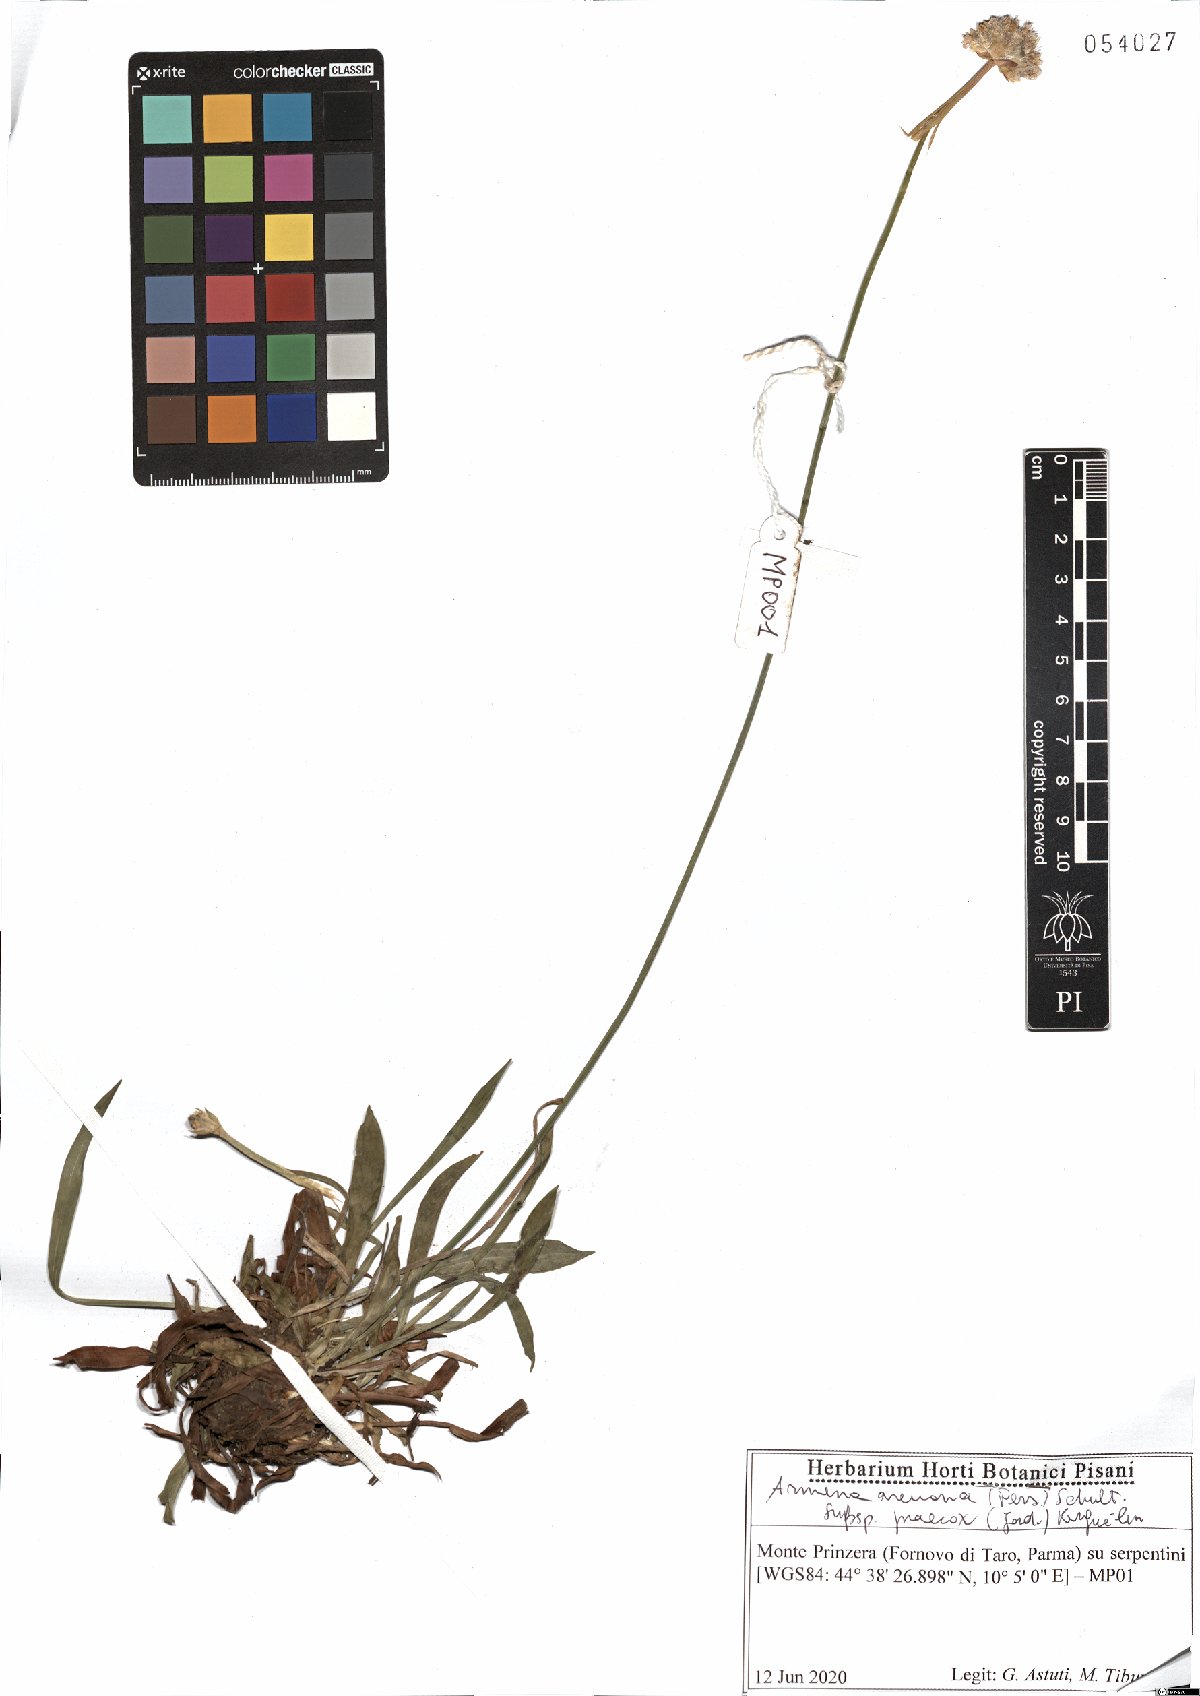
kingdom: Plantae
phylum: Tracheophyta
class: Magnoliopsida
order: Caryophyllales
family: Plumbaginaceae
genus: Armeria
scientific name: Armeria arenaria
